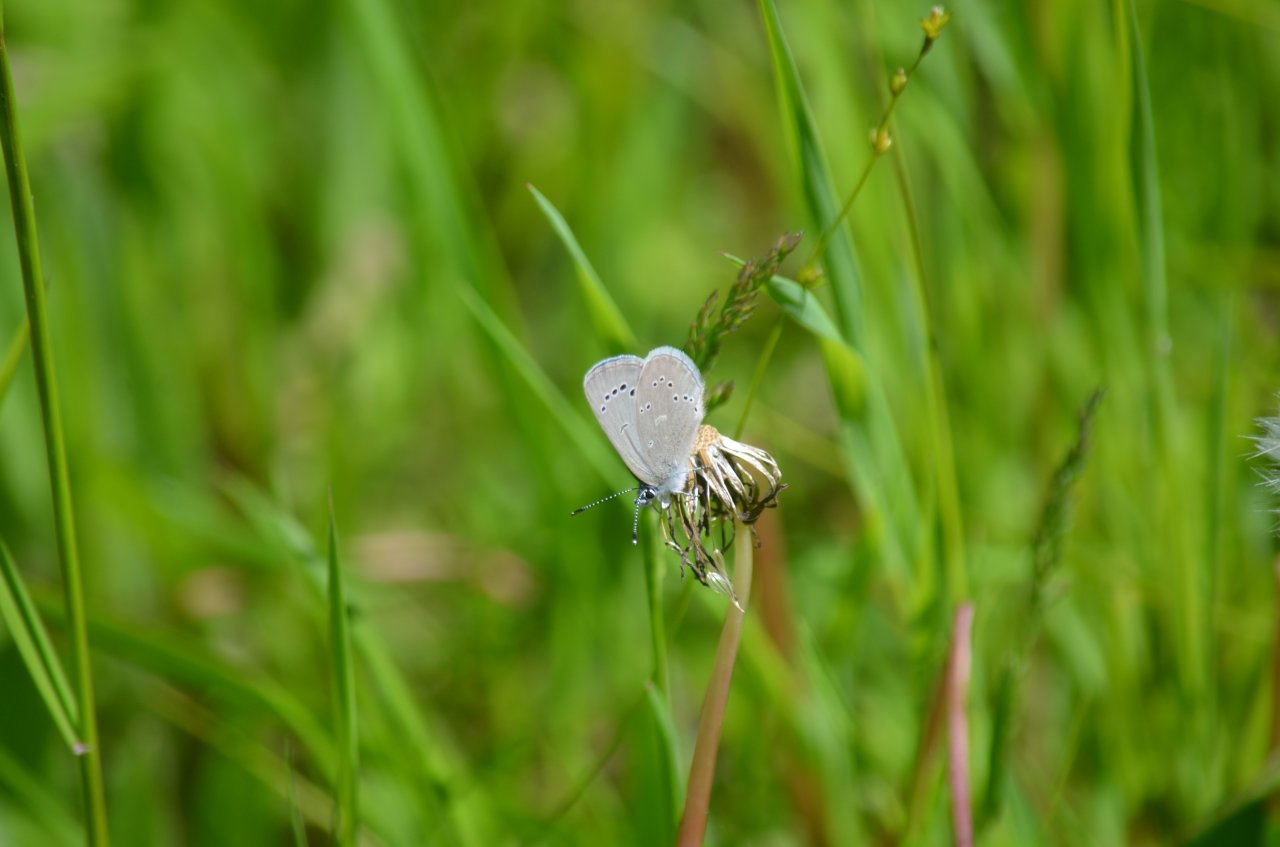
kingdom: Animalia
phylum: Arthropoda
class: Insecta
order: Lepidoptera
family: Lycaenidae
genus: Glaucopsyche
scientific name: Glaucopsyche lygdamus
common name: Silvery Blue
